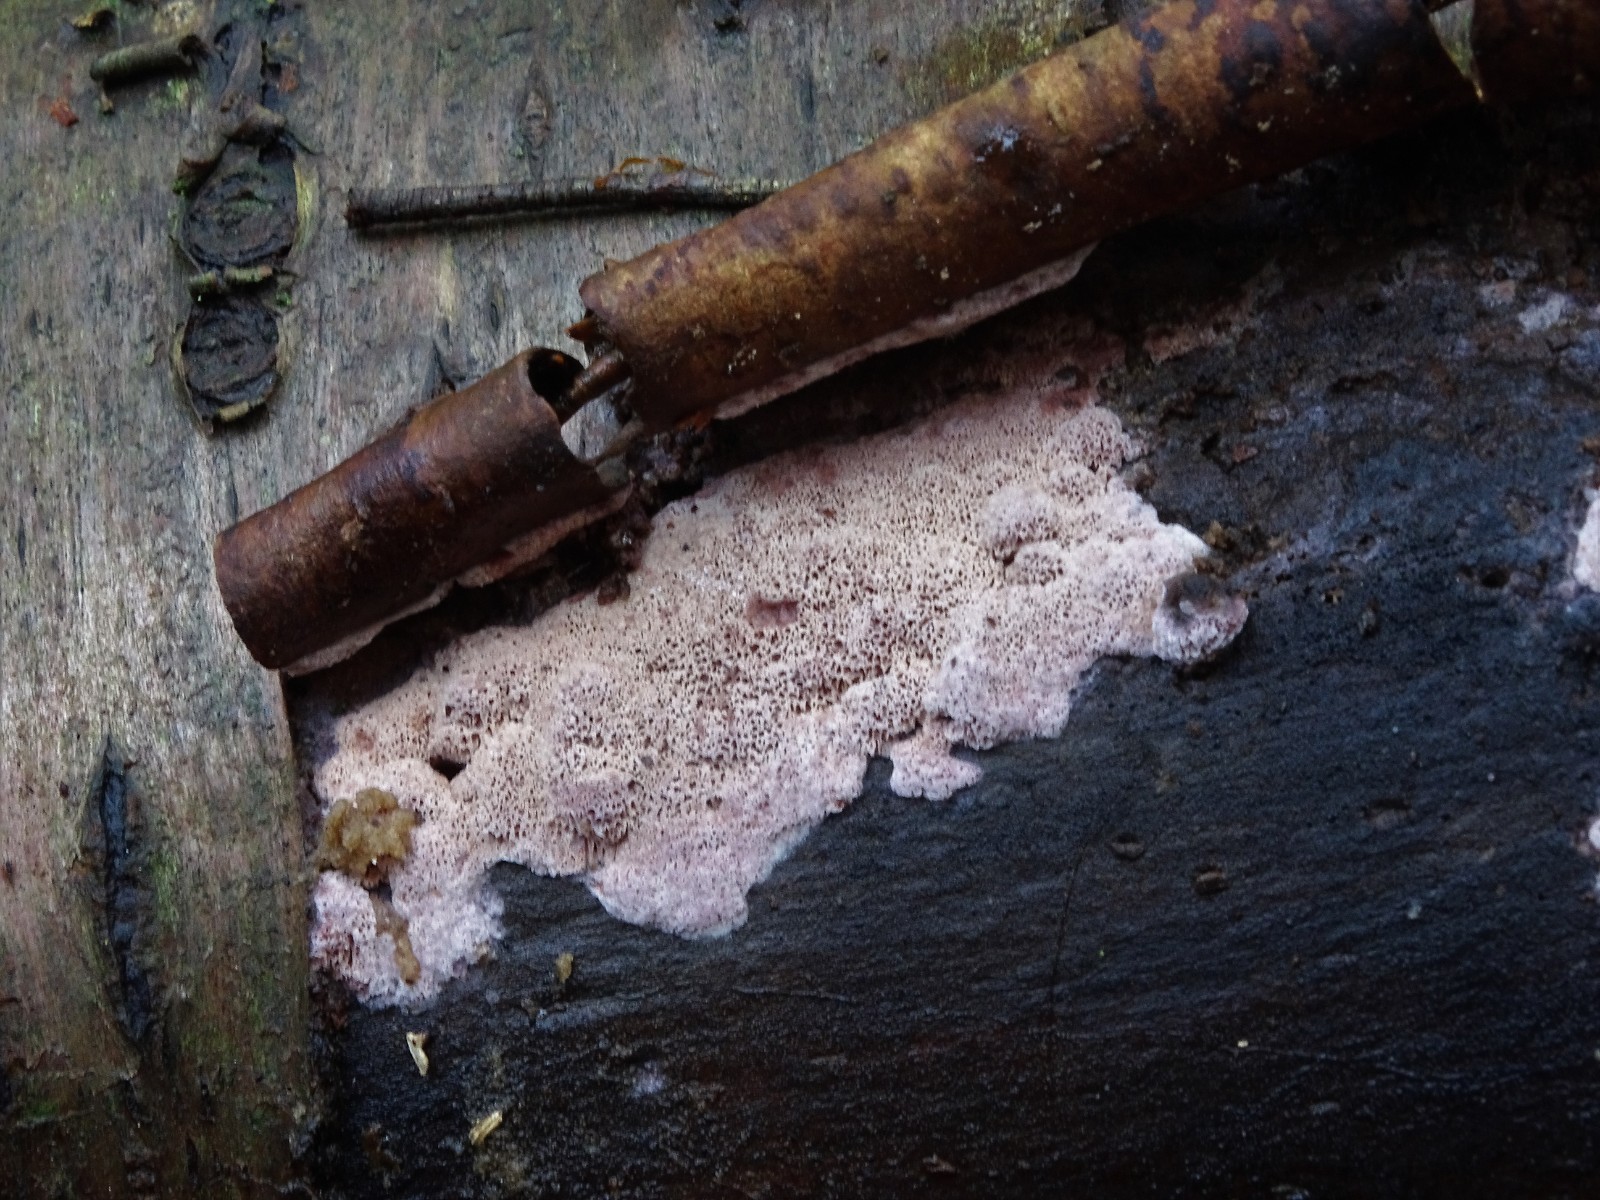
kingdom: Fungi
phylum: Basidiomycota
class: Agaricomycetes
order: Polyporales
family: Irpicaceae
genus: Ceriporia
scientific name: Ceriporia viridans
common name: foranderlig voksporesvamp
